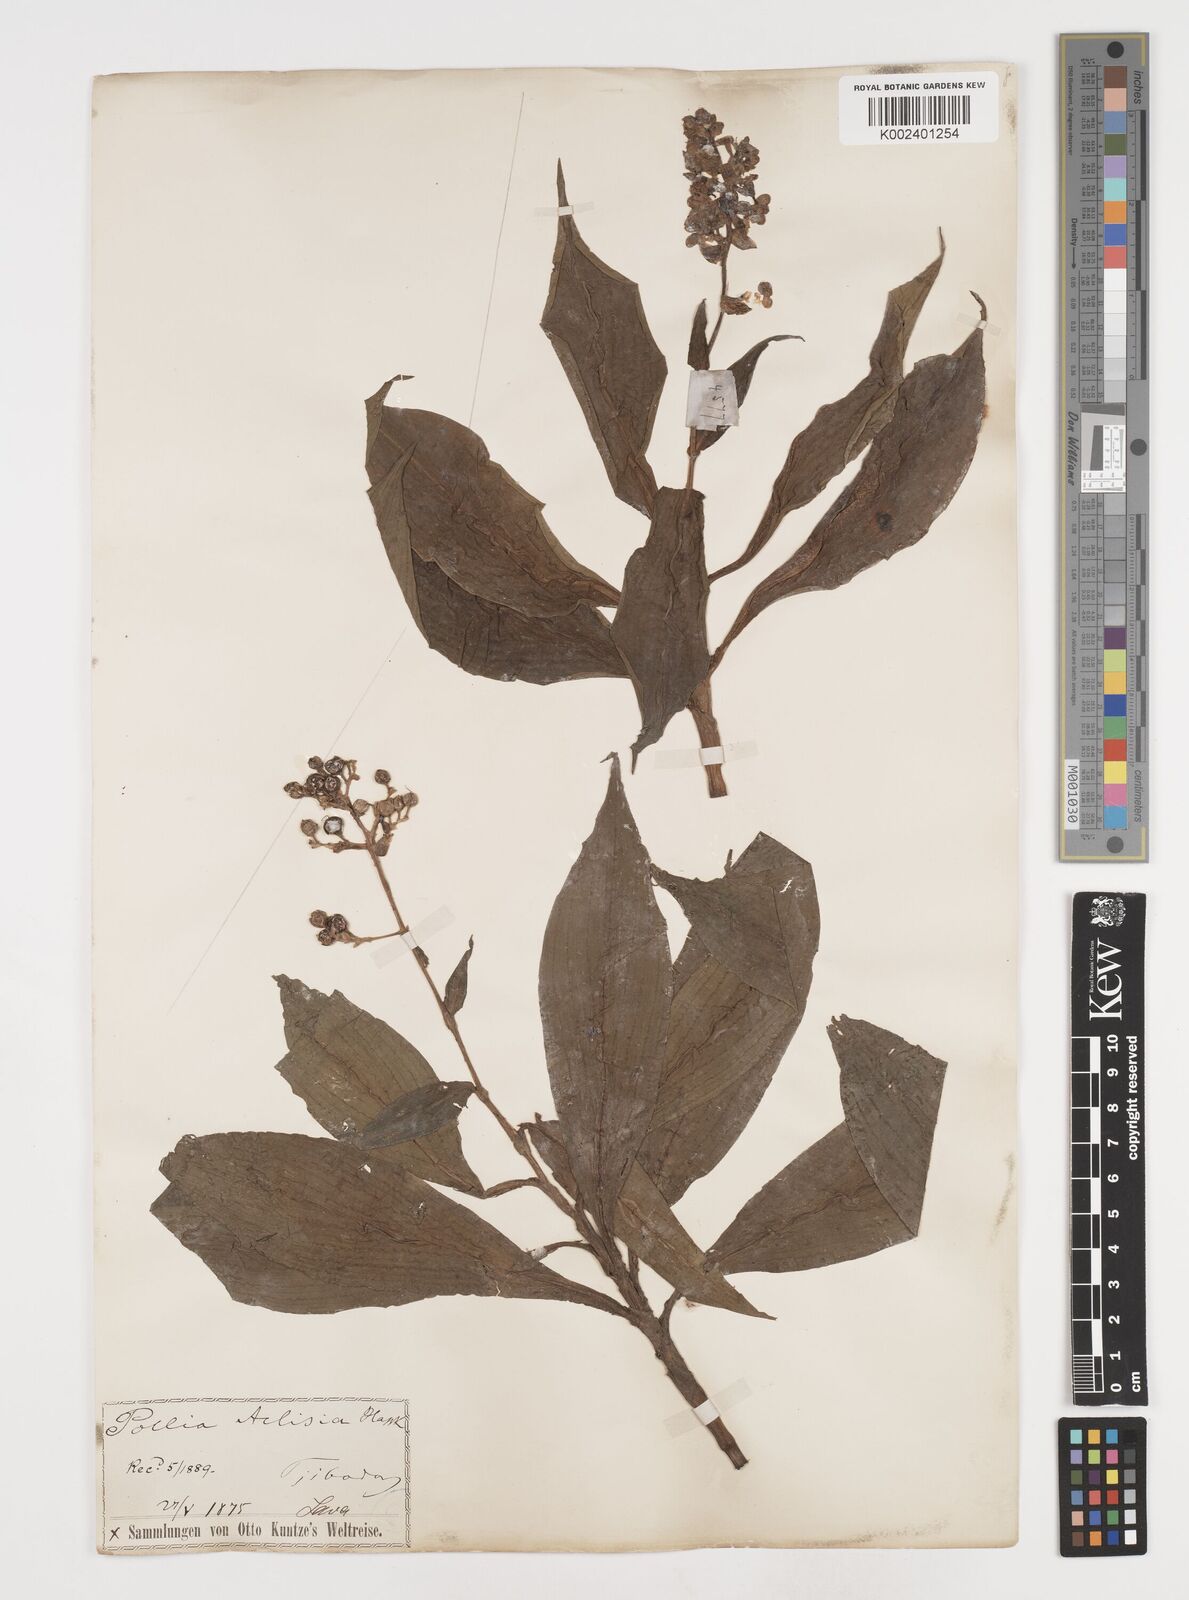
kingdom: Plantae
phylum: Tracheophyta
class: Liliopsida
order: Commelinales
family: Commelinaceae
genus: Pollia
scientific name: Pollia hasskarlii
